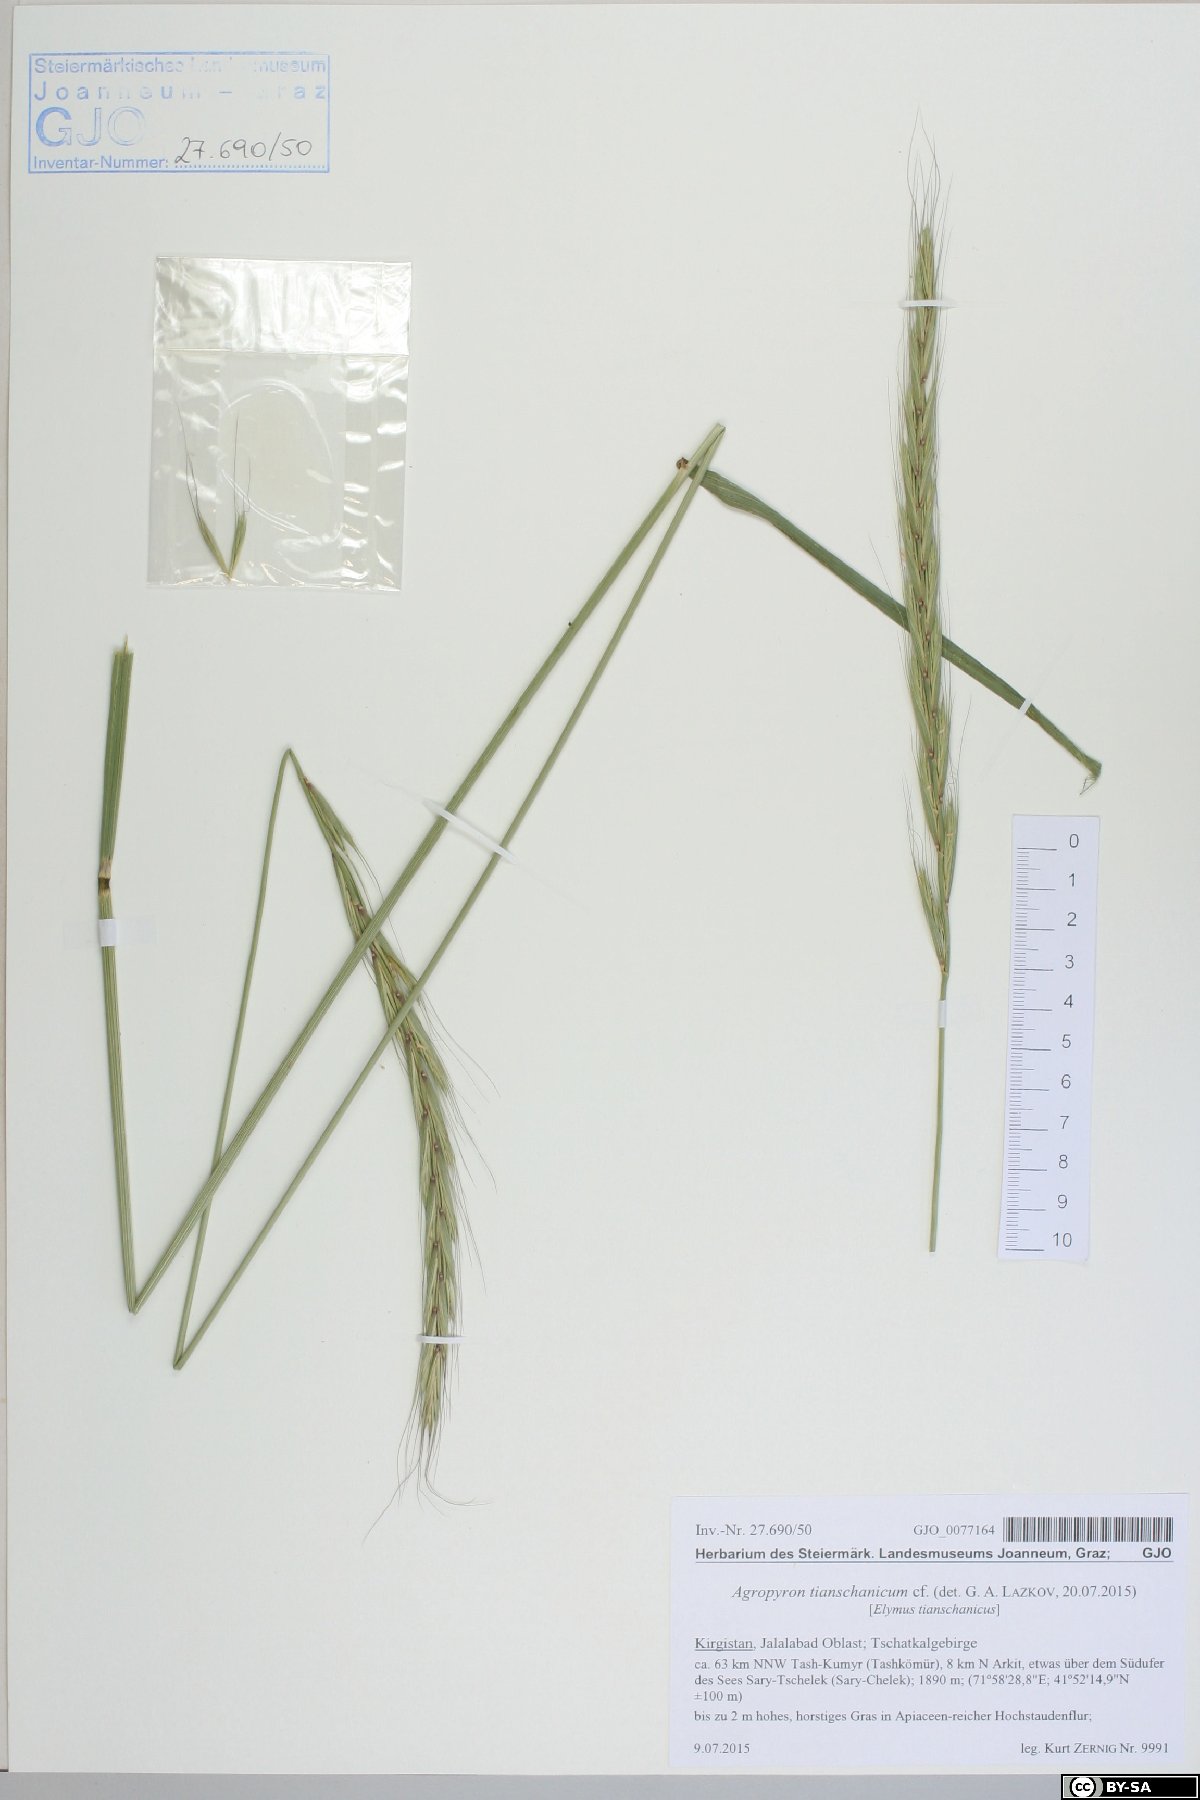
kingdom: Plantae
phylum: Tracheophyta
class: Liliopsida
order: Poales
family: Poaceae
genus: Elymus
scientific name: Elymus uralensis
